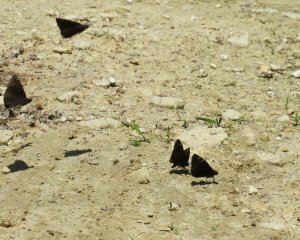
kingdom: Animalia
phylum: Arthropoda
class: Insecta
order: Lepidoptera
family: Hesperiidae
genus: Autochton
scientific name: Autochton
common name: Northern Cloudywing
